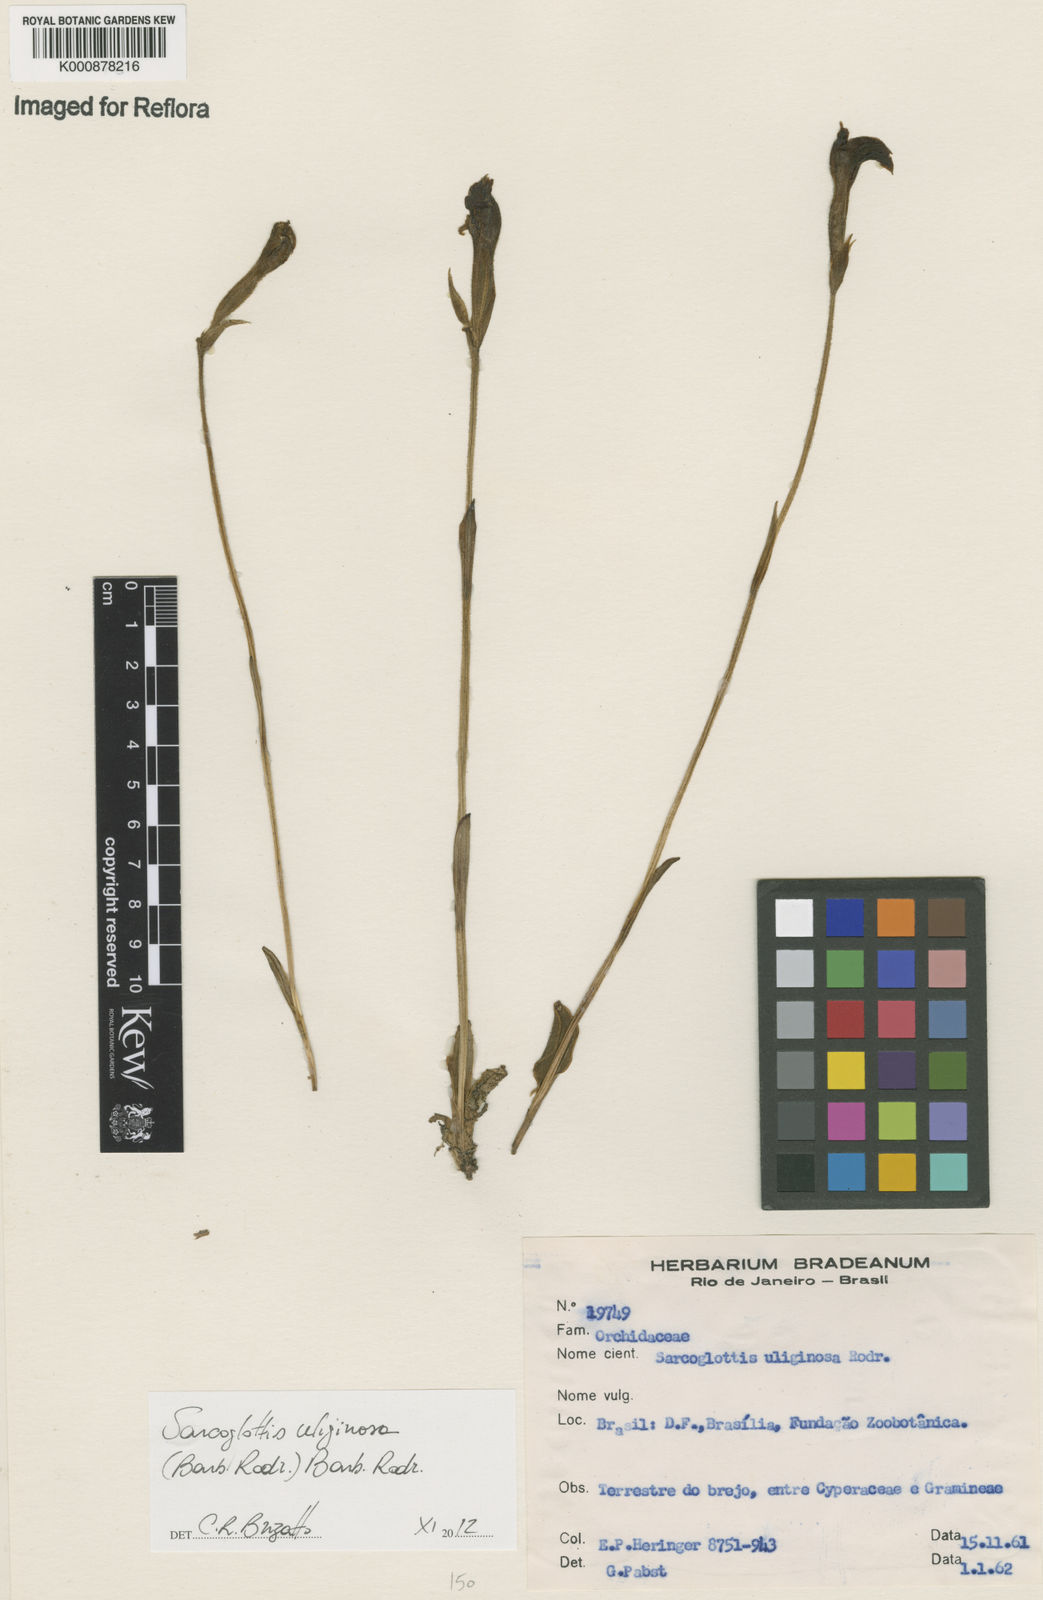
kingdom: Plantae
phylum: Tracheophyta
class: Liliopsida
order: Asparagales
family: Orchidaceae
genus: Sarcoglottis
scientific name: Sarcoglottis uliginosa
